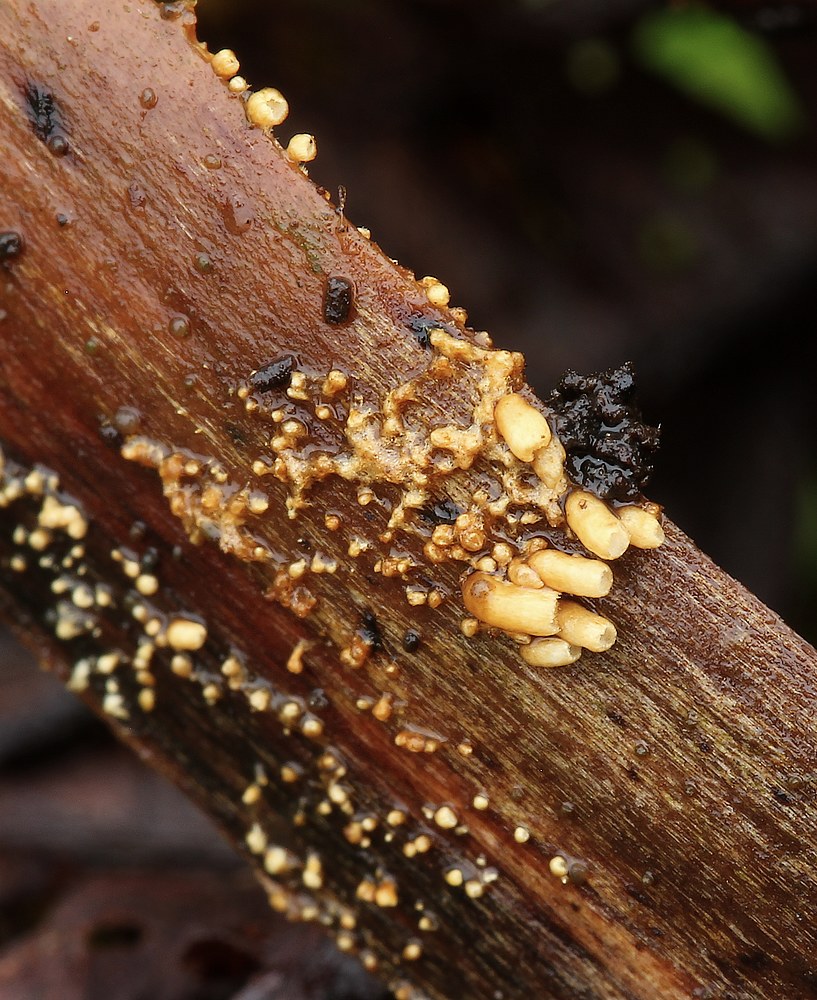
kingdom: Fungi
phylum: Basidiomycota
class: Agaricomycetes
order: Agaricales
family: Niaceae
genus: Woldmaria
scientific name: Woldmaria filicina
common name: bregnerør
